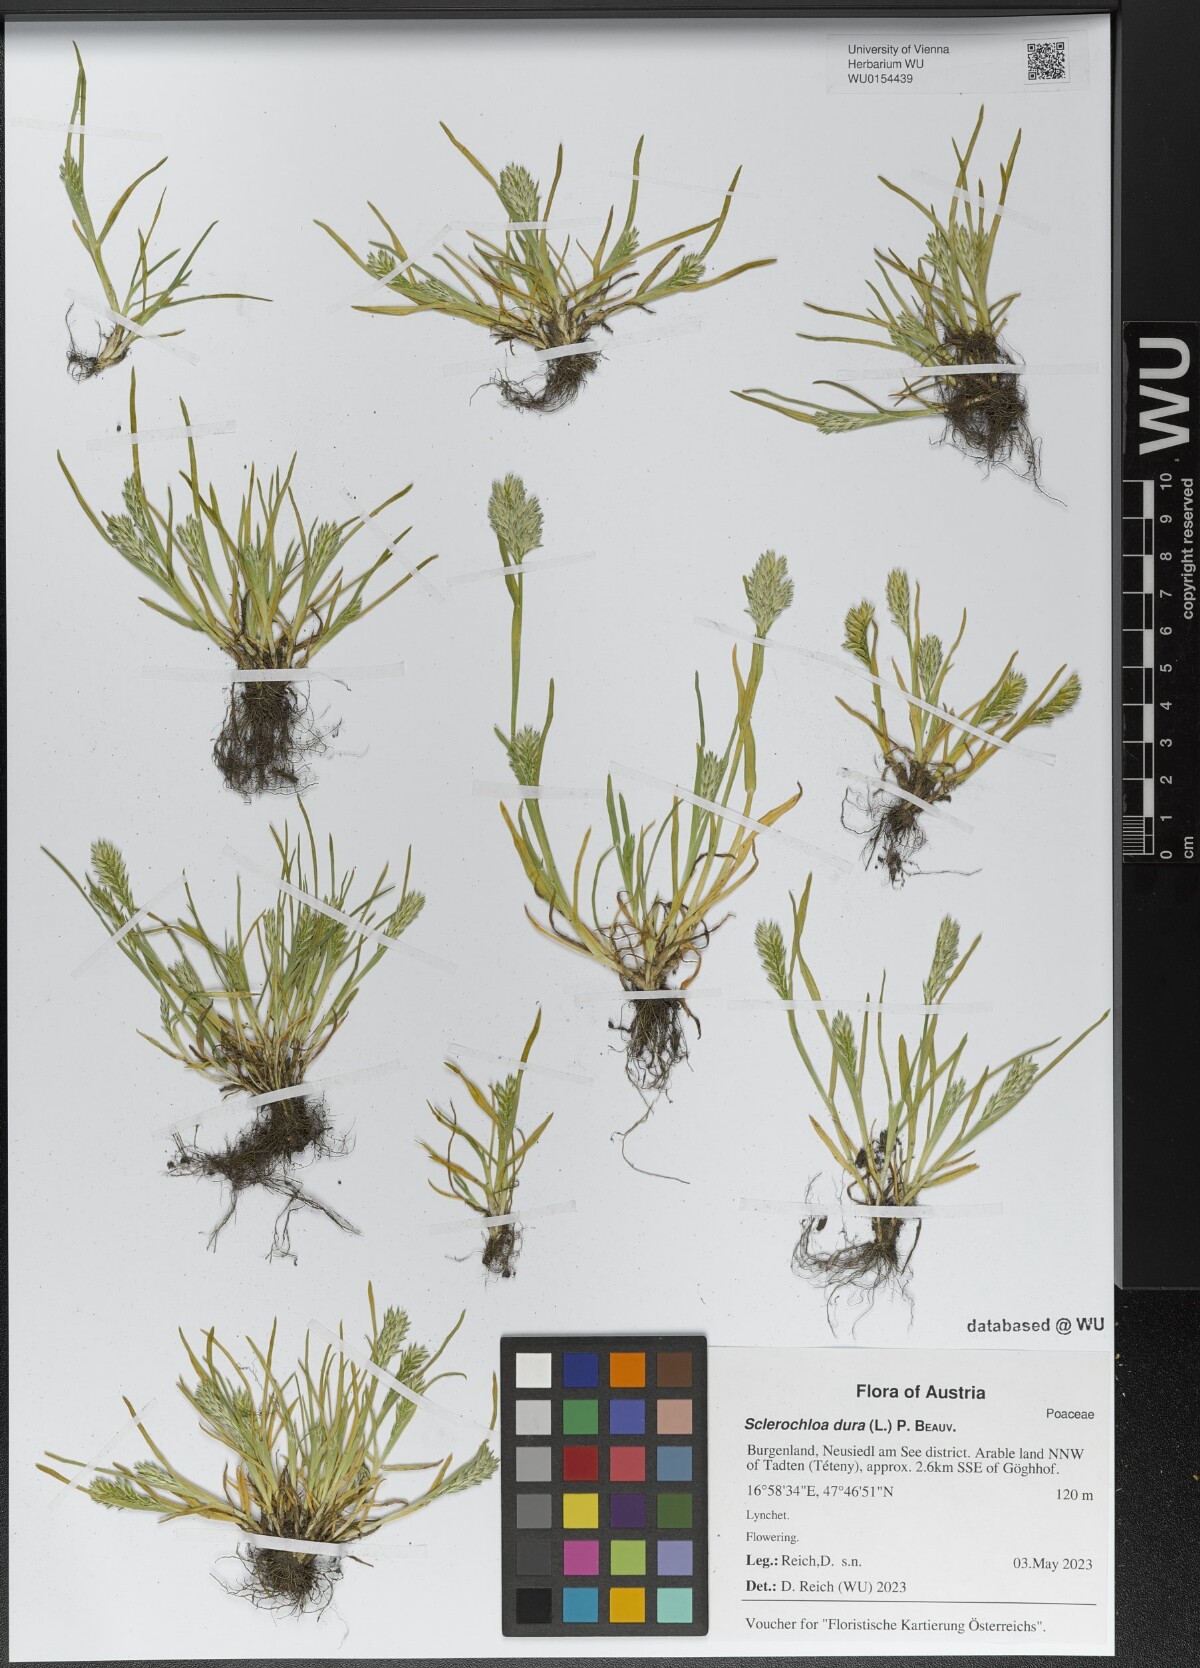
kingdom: Plantae
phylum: Tracheophyta
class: Liliopsida
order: Poales
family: Poaceae
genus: Sclerochloa
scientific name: Sclerochloa dura
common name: Common hardgrass
